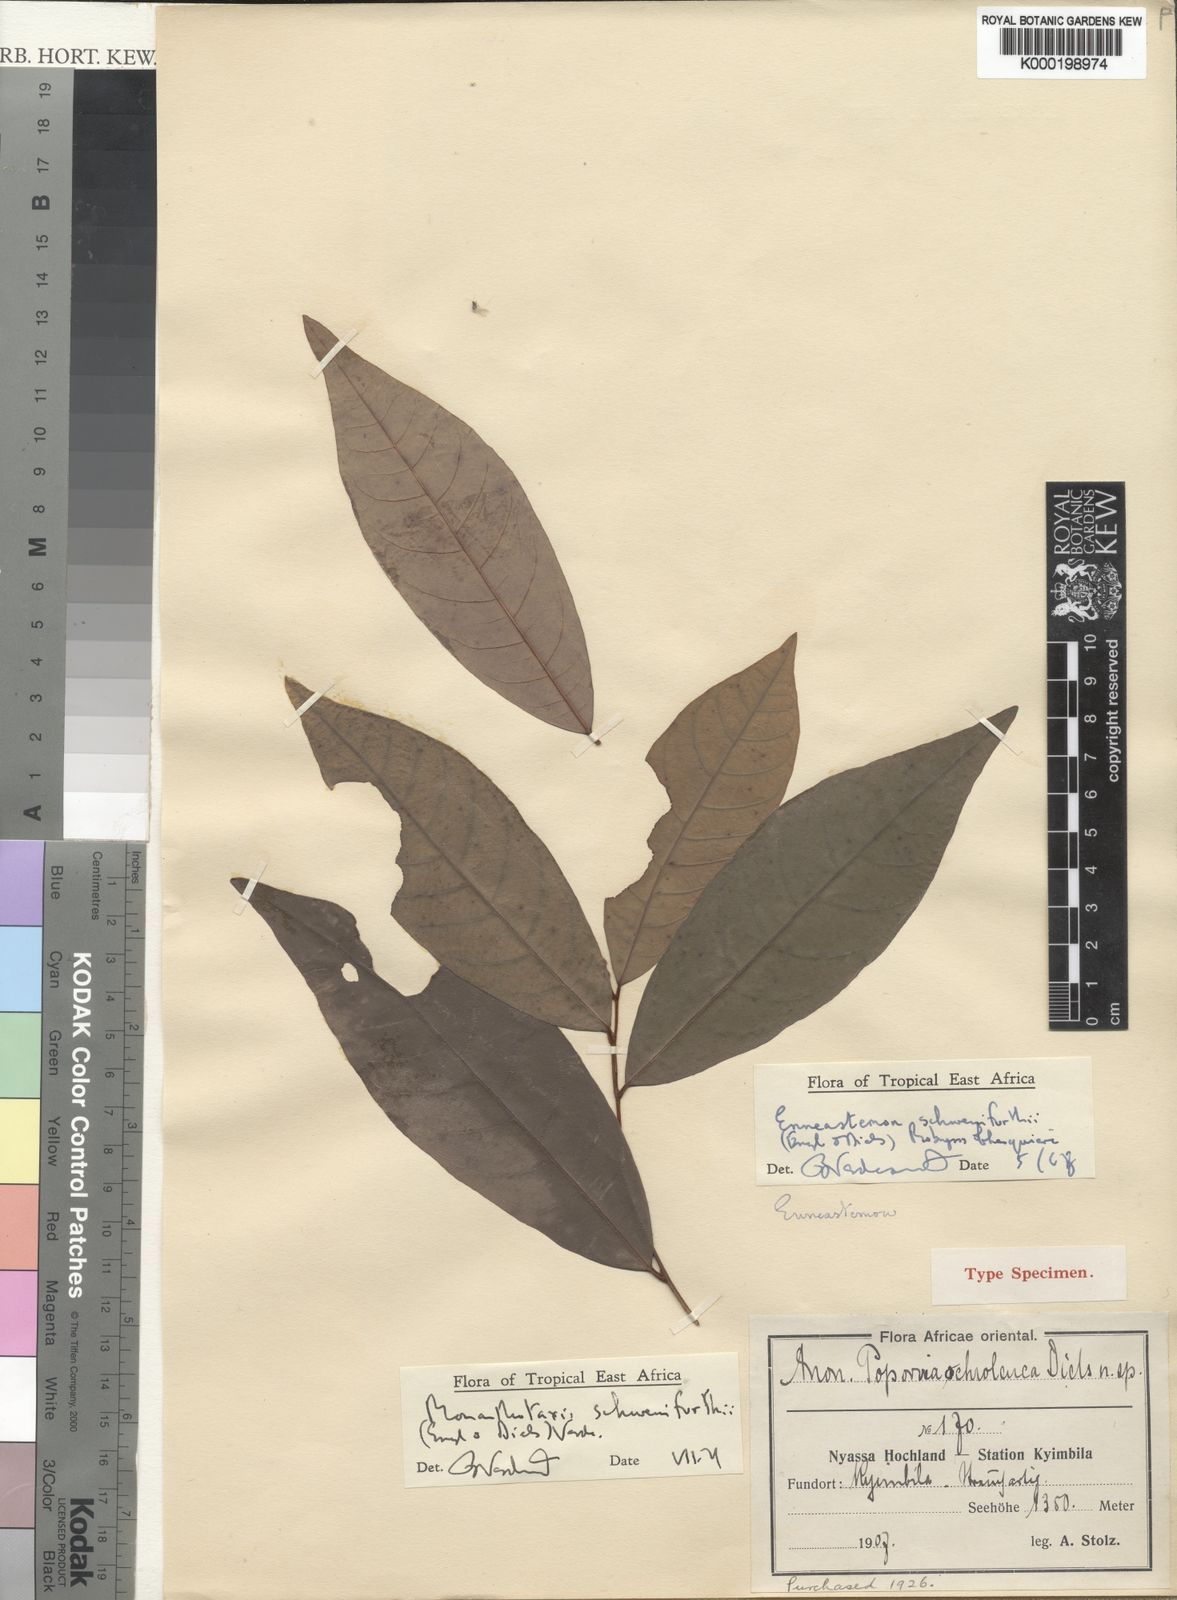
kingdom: Plantae
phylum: Tracheophyta
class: Magnoliopsida
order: Magnoliales
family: Annonaceae
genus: Monanthotaxis
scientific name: Monanthotaxis schweinfurthii
